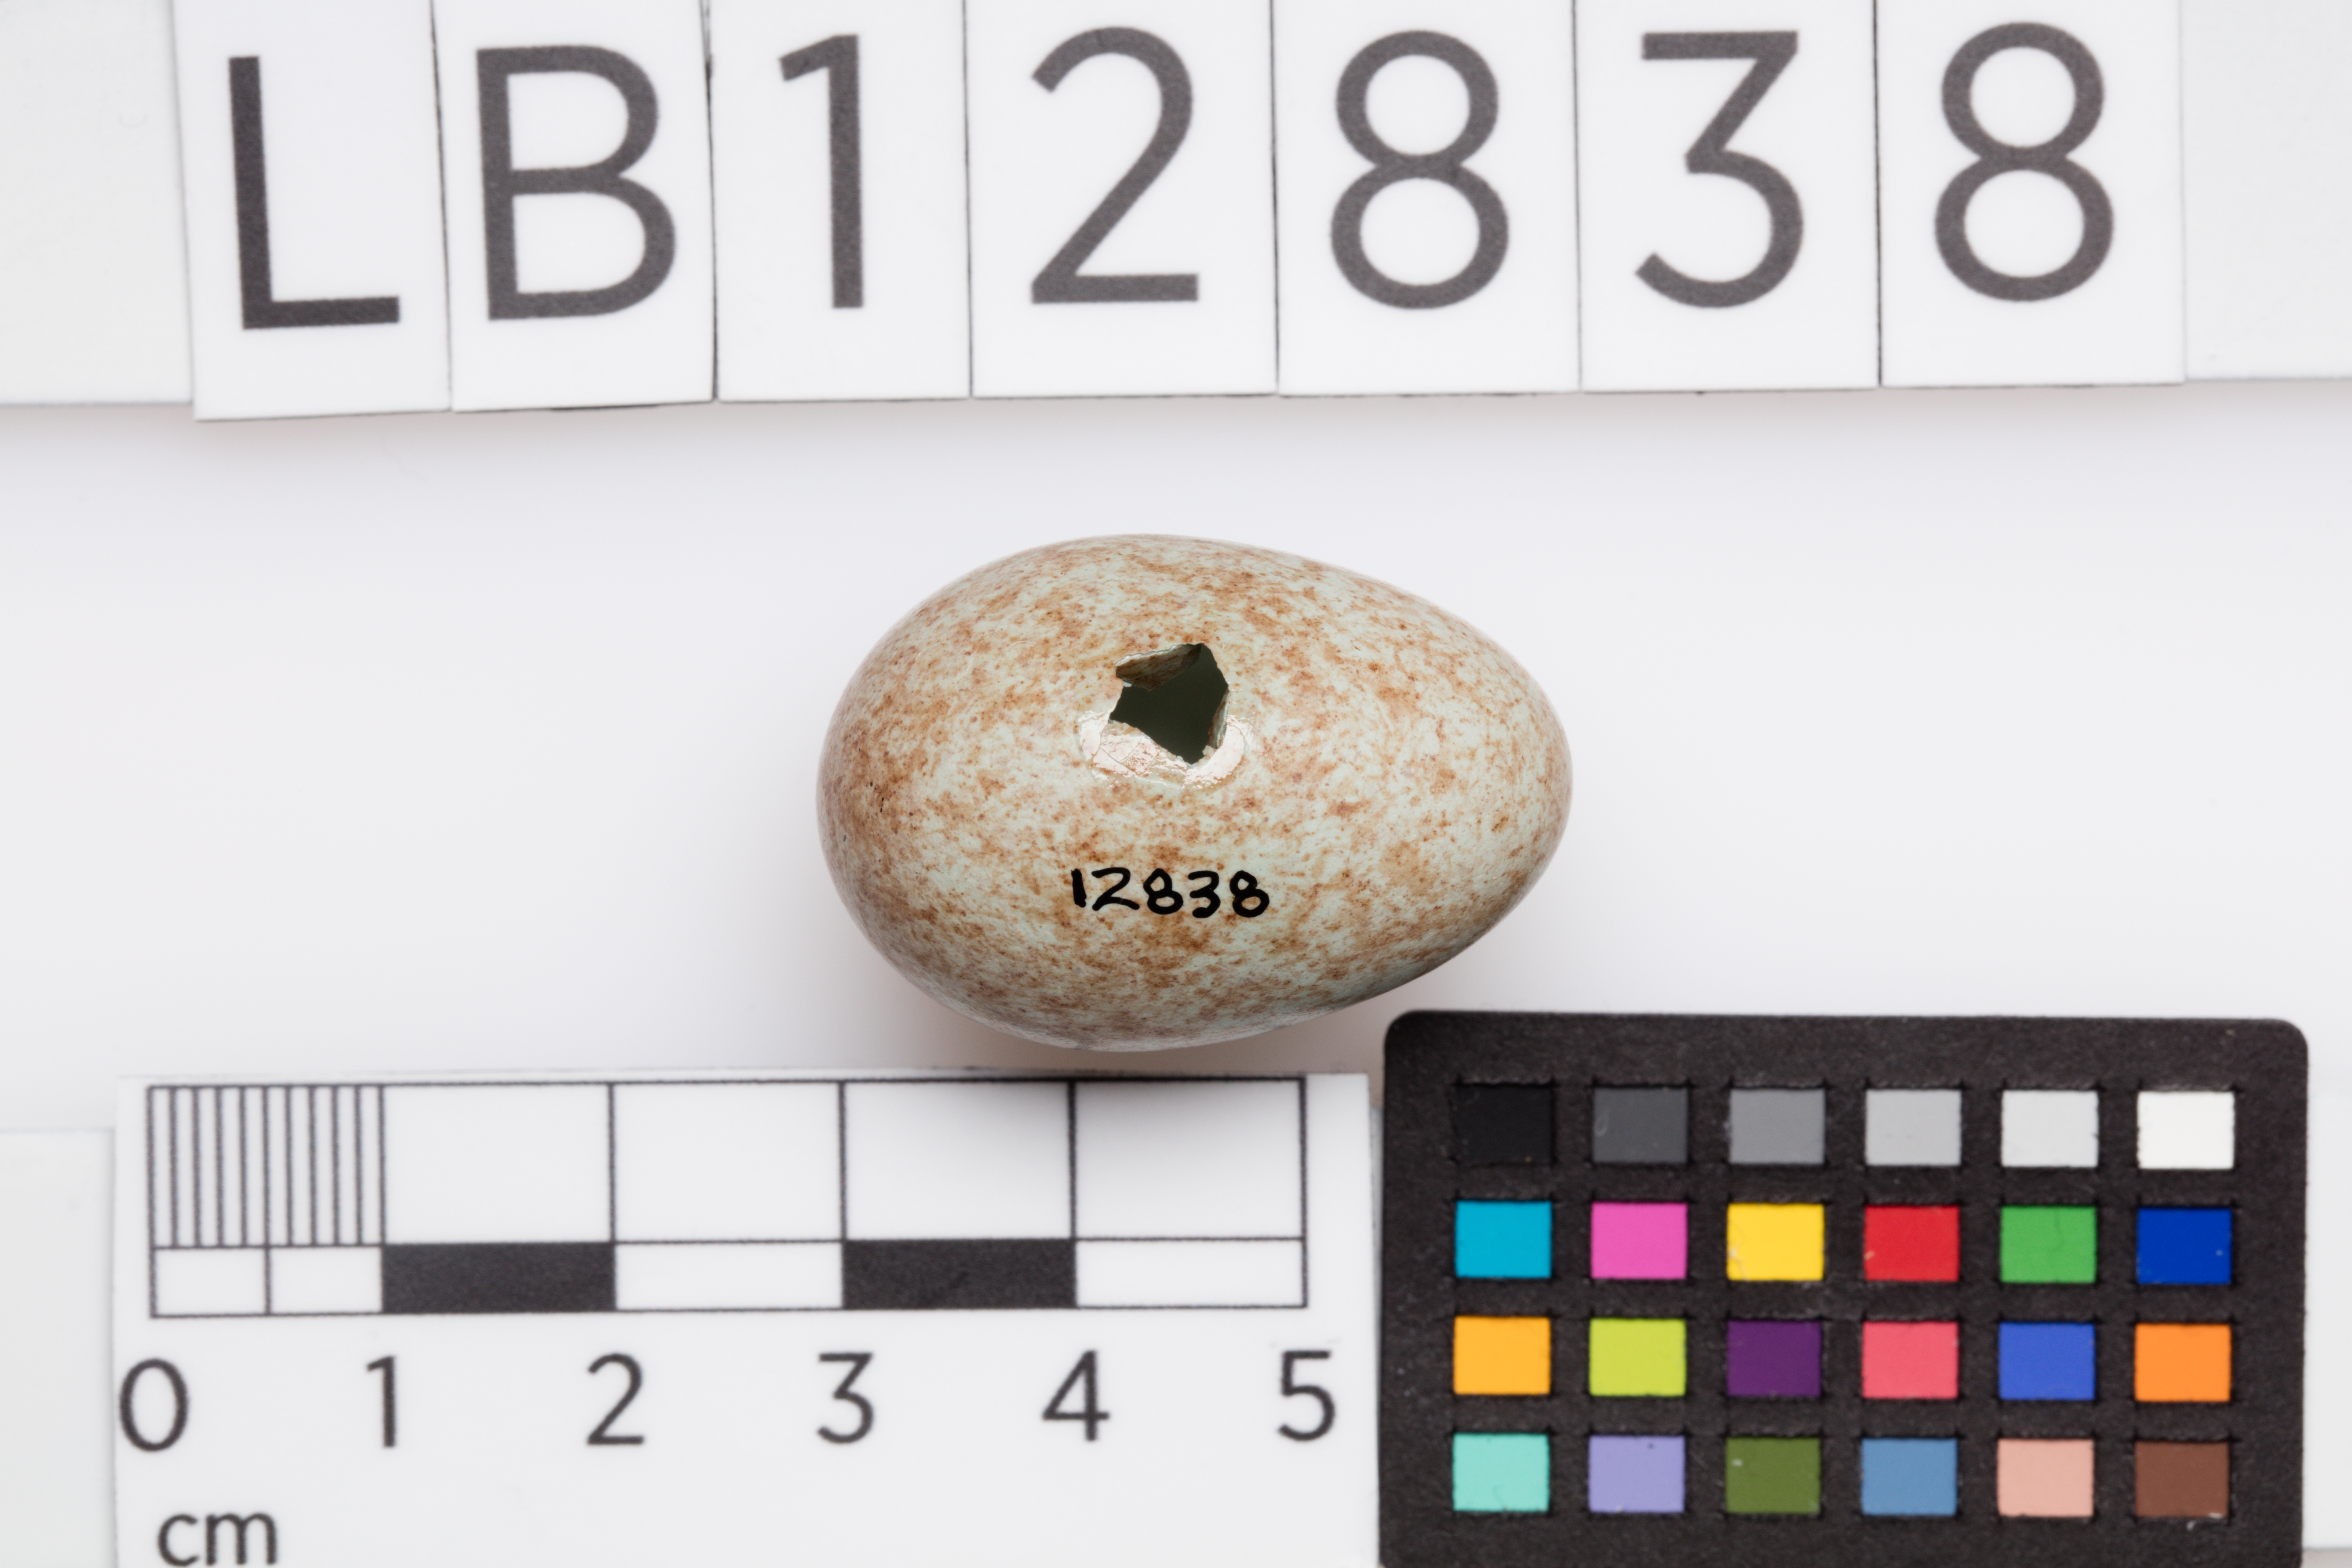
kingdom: Animalia
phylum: Chordata
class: Aves
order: Passeriformes
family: Turdidae
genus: Turdus
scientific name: Turdus merula
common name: Common blackbird
